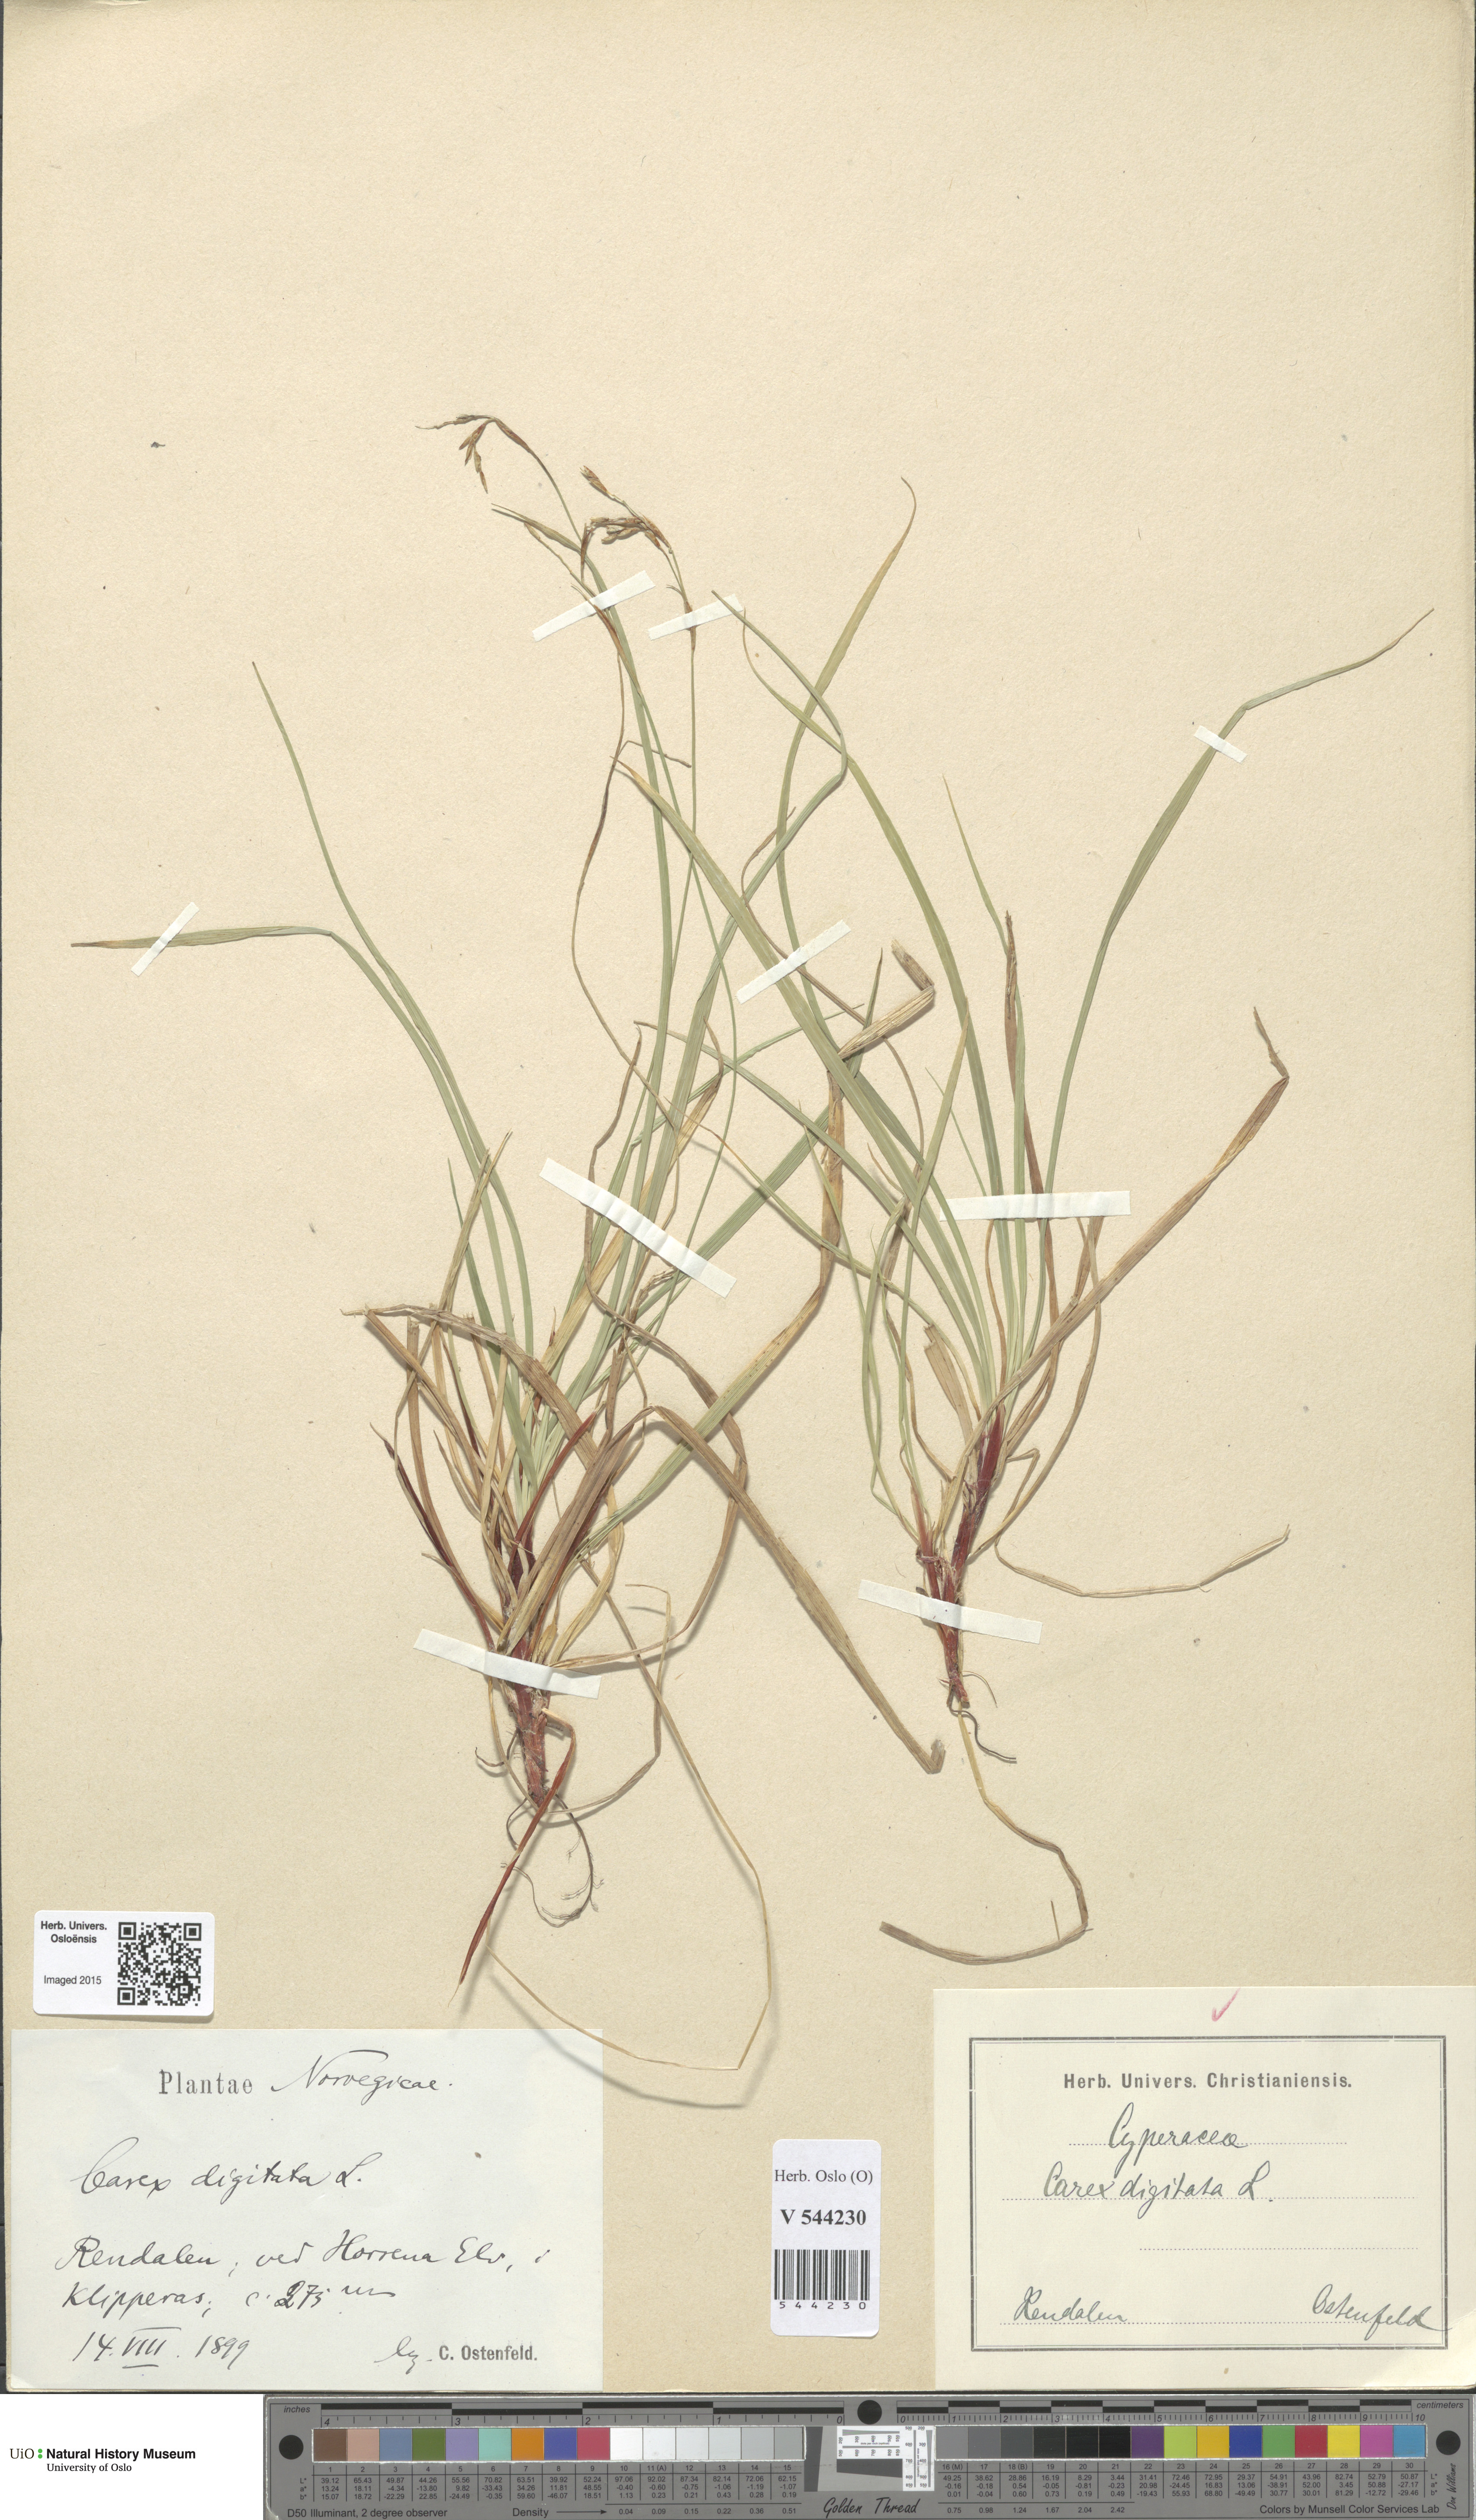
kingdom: Plantae
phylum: Tracheophyta
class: Liliopsida
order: Poales
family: Cyperaceae
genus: Carex
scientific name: Carex digitata
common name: Fingered sedge
